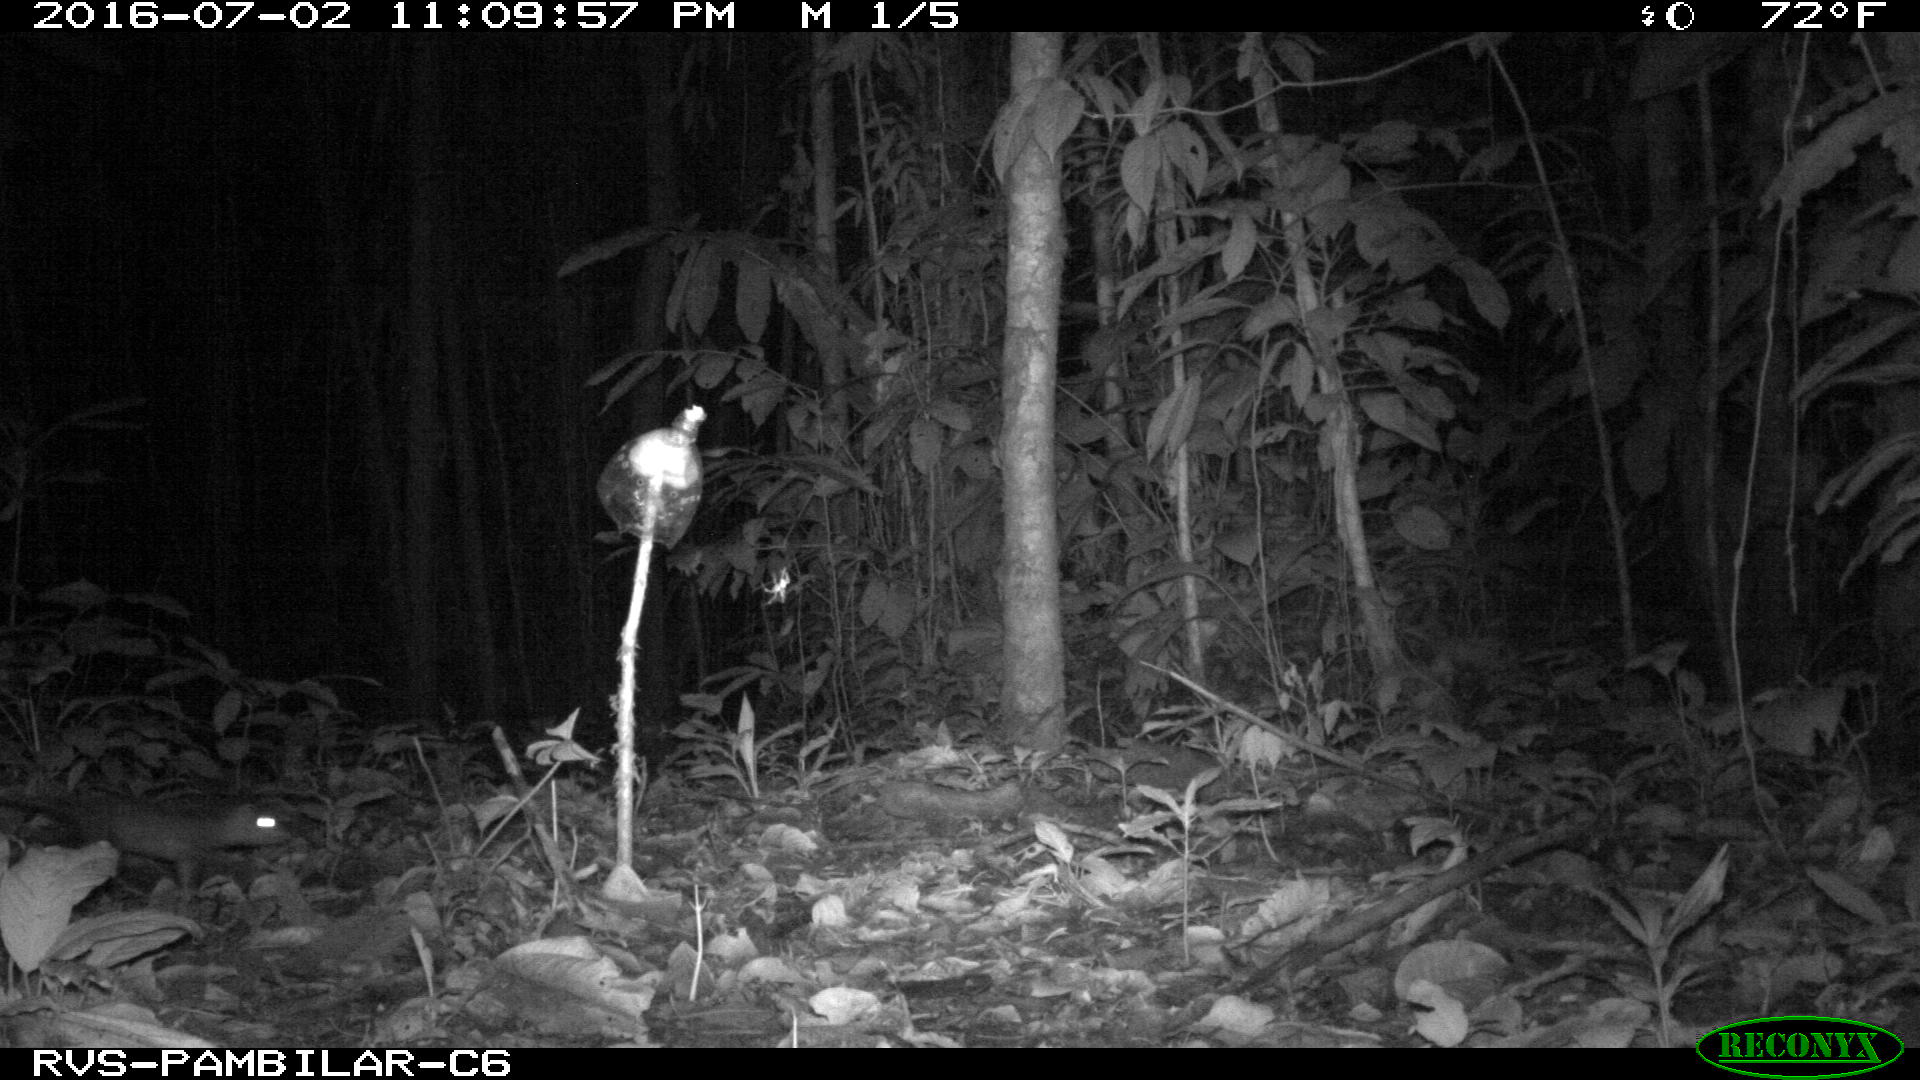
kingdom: Animalia
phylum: Chordata
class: Mammalia
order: Didelphimorphia
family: Didelphidae
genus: Didelphis
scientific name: Didelphis marsupialis
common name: Common opossum
